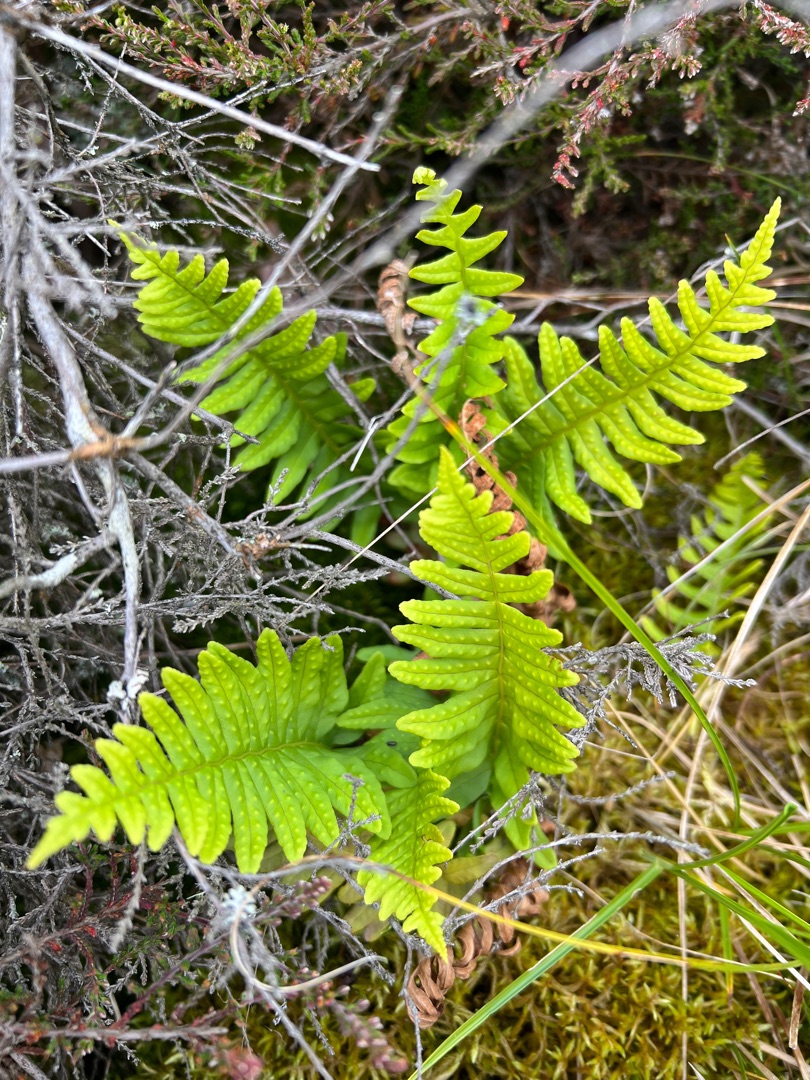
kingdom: Plantae
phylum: Tracheophyta
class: Polypodiopsida
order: Polypodiales
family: Polypodiaceae
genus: Polypodium
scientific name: Polypodium vulgare
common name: Almindelig engelsød
